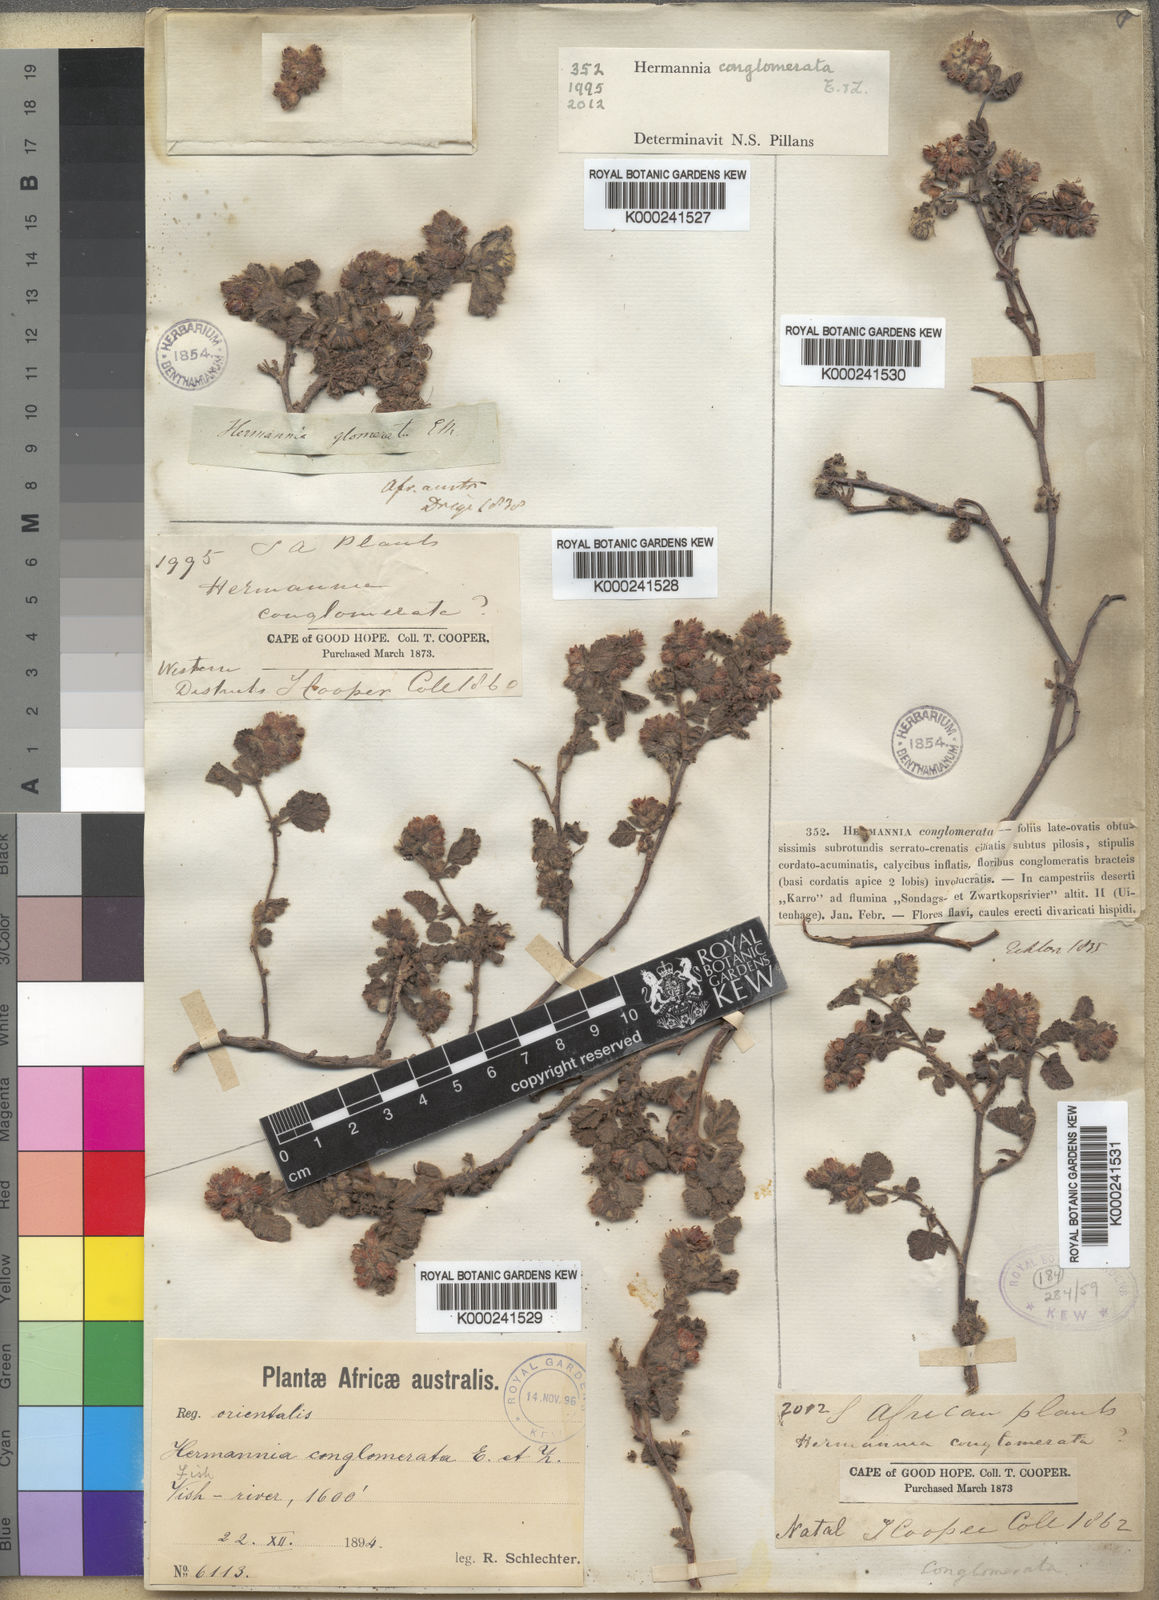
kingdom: Plantae
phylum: Tracheophyta
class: Magnoliopsida
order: Malvales
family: Malvaceae
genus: Hermannia
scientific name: Hermannia conglomerata
